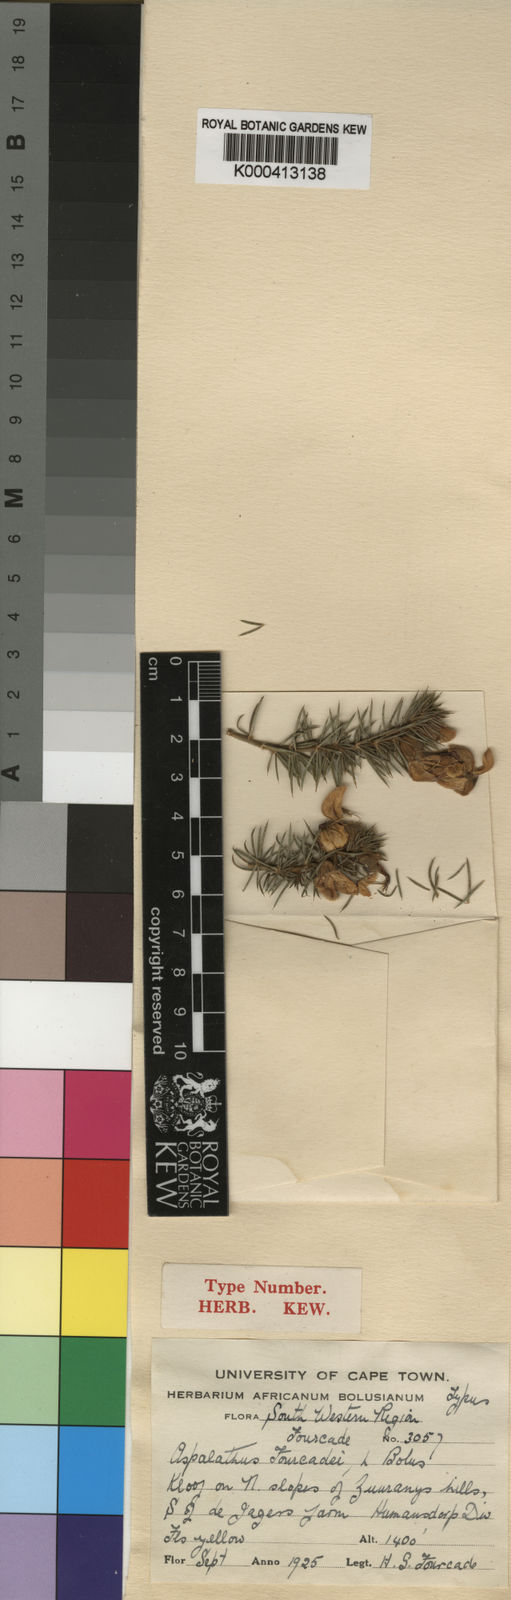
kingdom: Plantae
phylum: Tracheophyta
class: Magnoliopsida
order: Fabales
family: Fabaceae
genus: Aspalathus
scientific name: Aspalathus fourcadei
